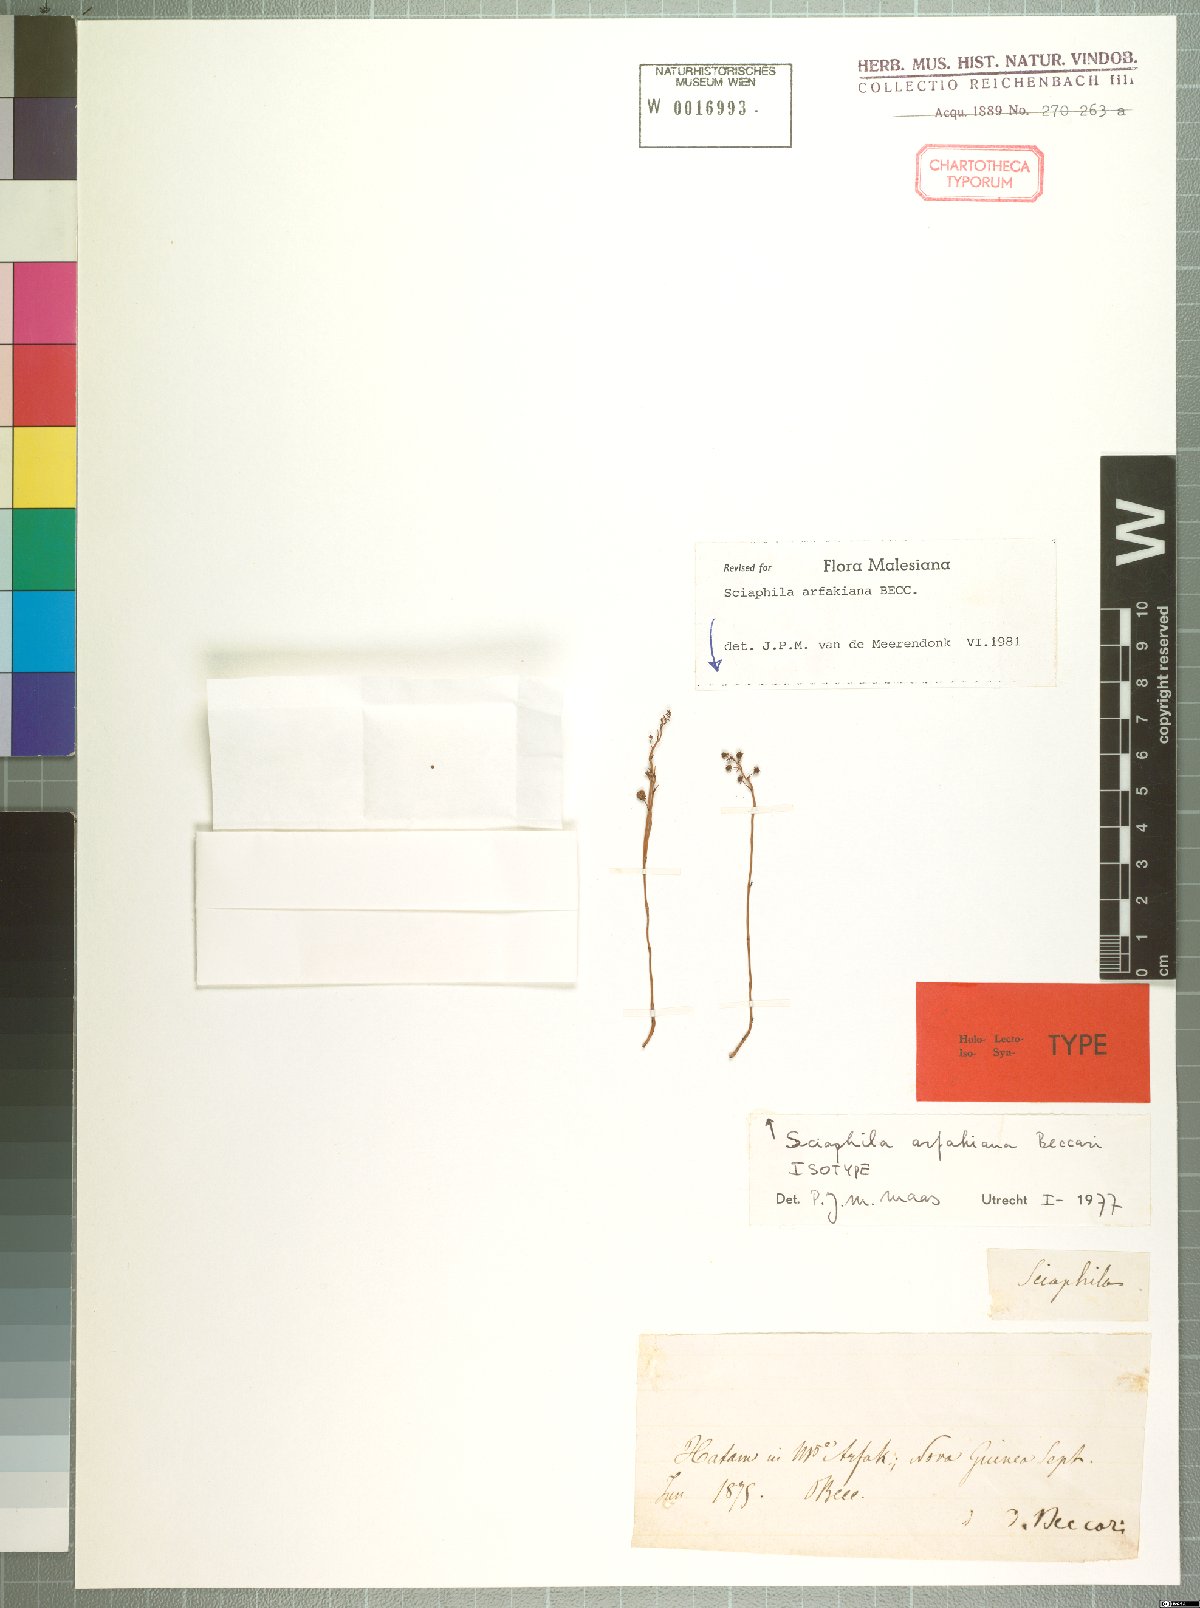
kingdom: Plantae
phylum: Tracheophyta
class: Liliopsida
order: Pandanales
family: Triuridaceae
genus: Sciaphila
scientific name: Sciaphila arfakiana
